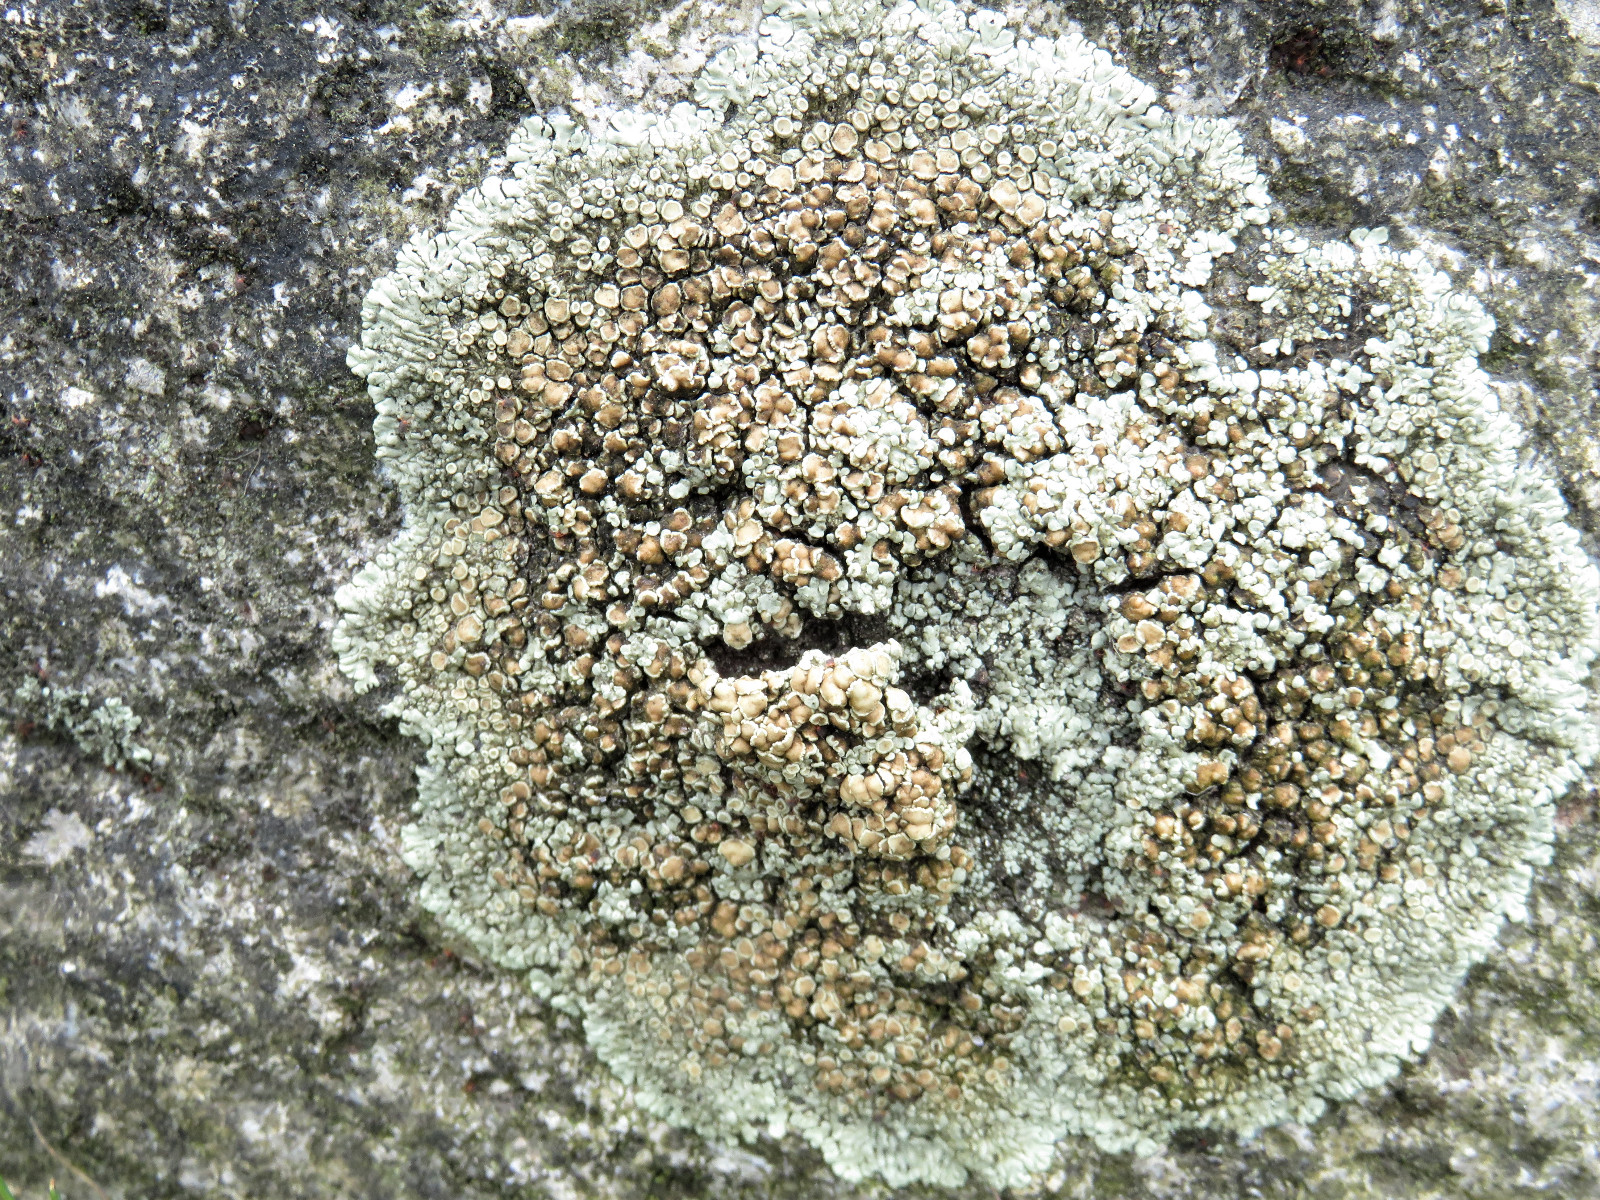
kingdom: Fungi
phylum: Ascomycota
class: Lecanoromycetes
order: Lecanorales
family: Lecanoraceae
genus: Protoparmeliopsis
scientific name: Protoparmeliopsis muralis
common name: randfliget kantskivelav
